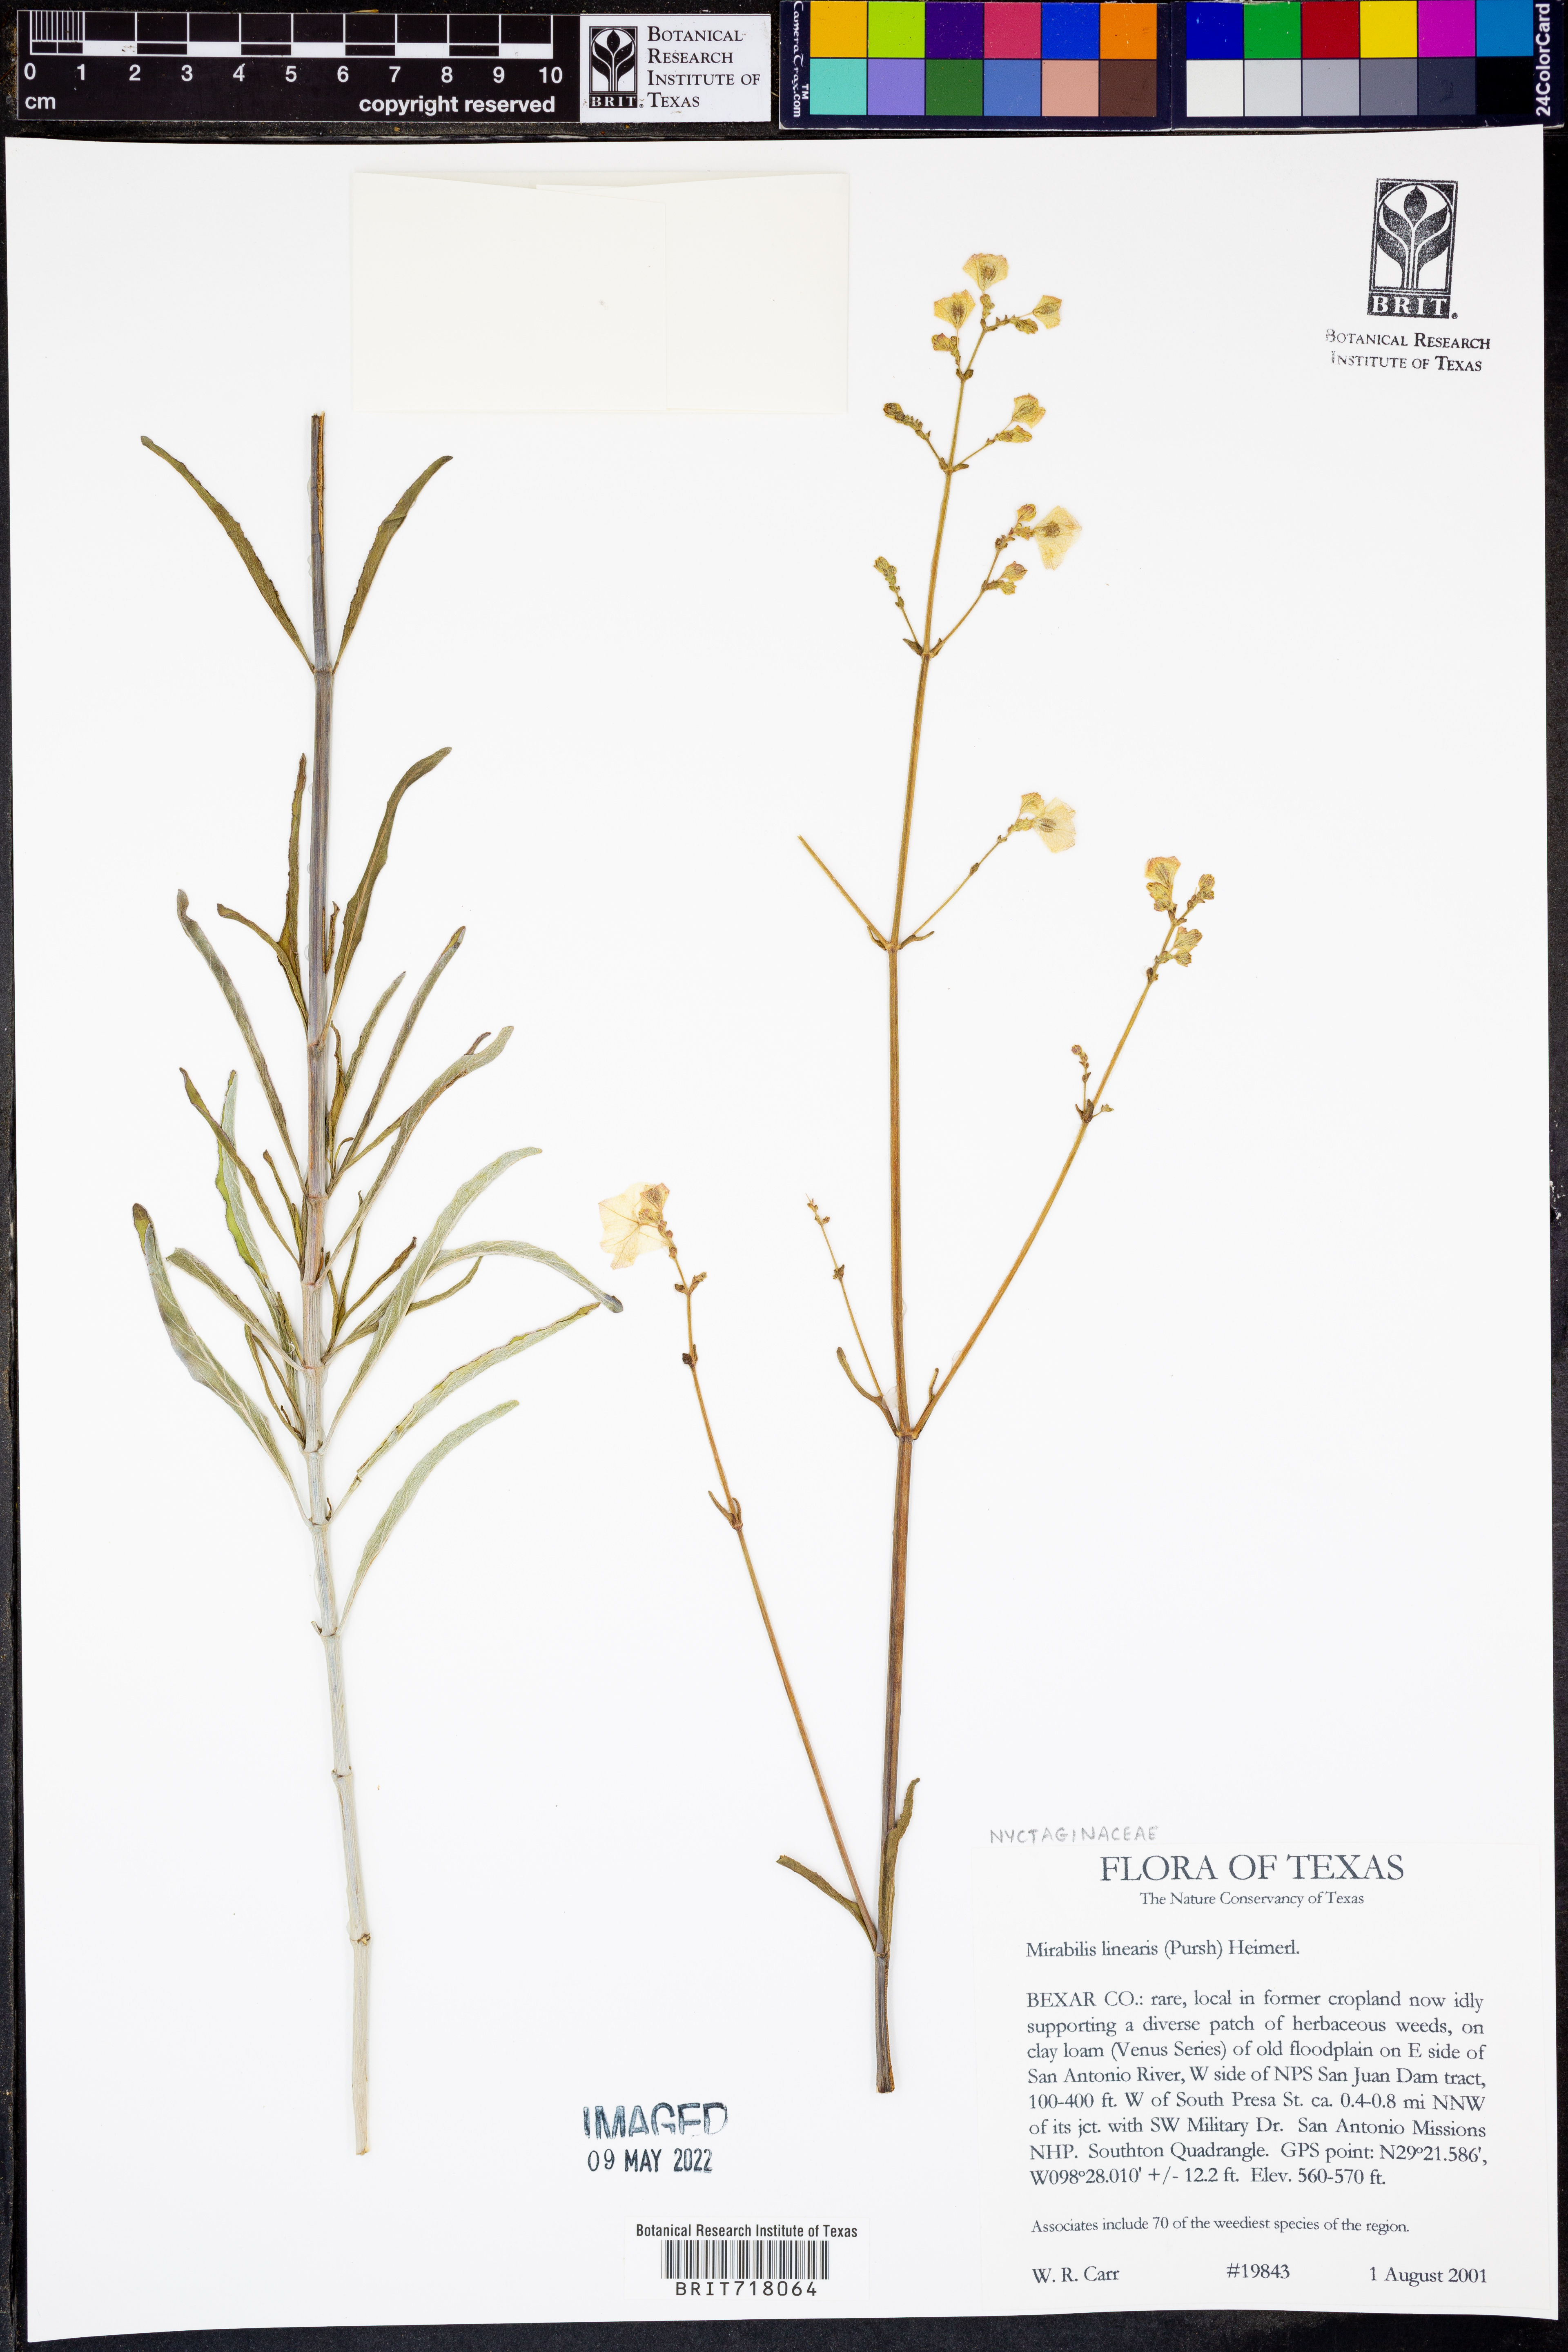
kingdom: Plantae
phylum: Tracheophyta
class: Magnoliopsida
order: Caryophyllales
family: Nyctaginaceae
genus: Mirabilis
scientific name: Mirabilis linearis
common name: Linear-leaved four-o'clock
